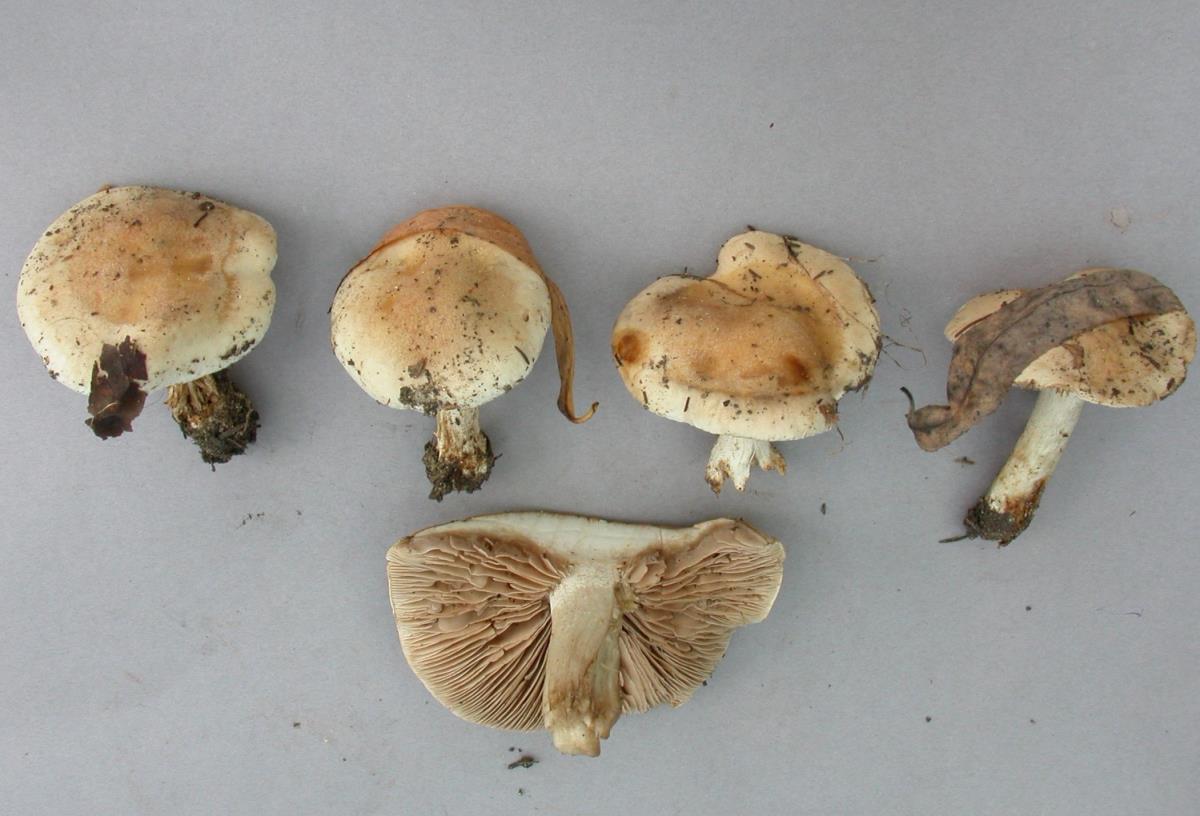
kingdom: Fungi
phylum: Basidiomycota
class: Agaricomycetes
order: Agaricales
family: Hymenogastraceae
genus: Hebeloma
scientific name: Hebeloma aanenii
